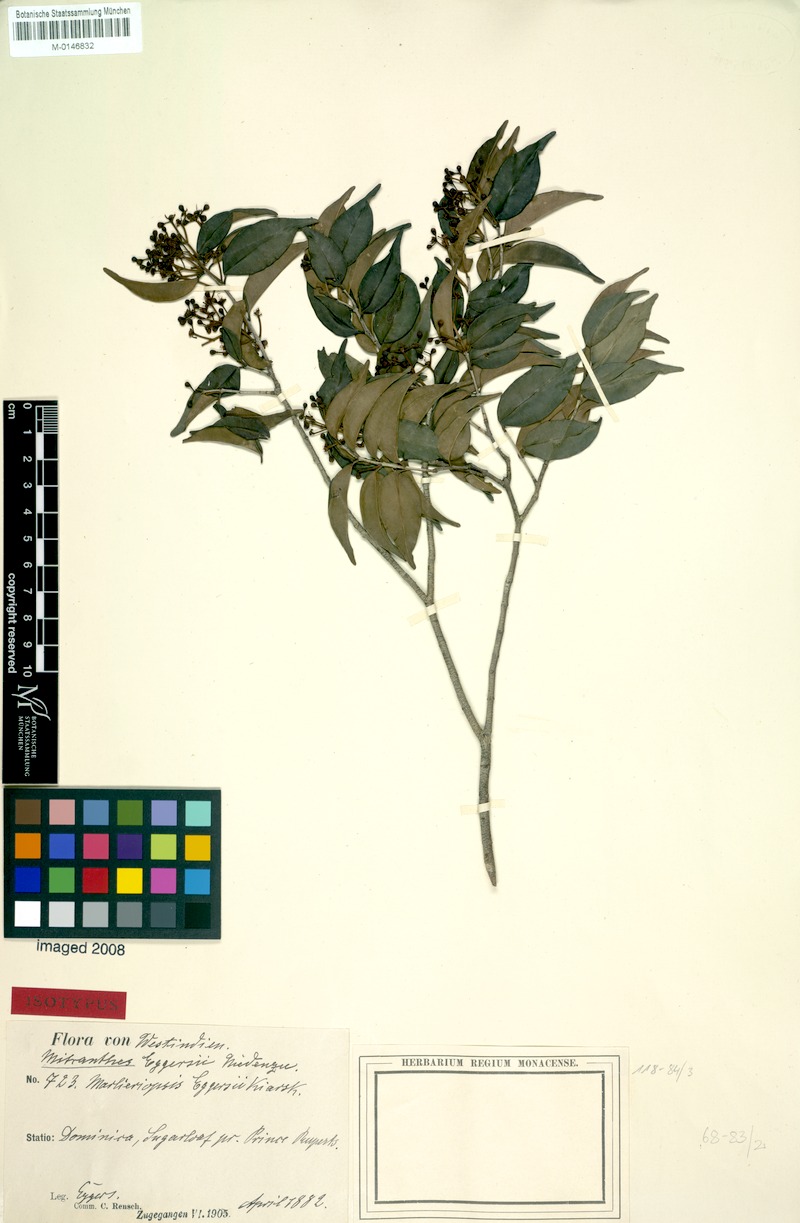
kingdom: Plantae
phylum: Tracheophyta
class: Magnoliopsida
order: Myrtales
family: Myrtaceae
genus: Blepharocalyx
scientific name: Blepharocalyx eggersii
